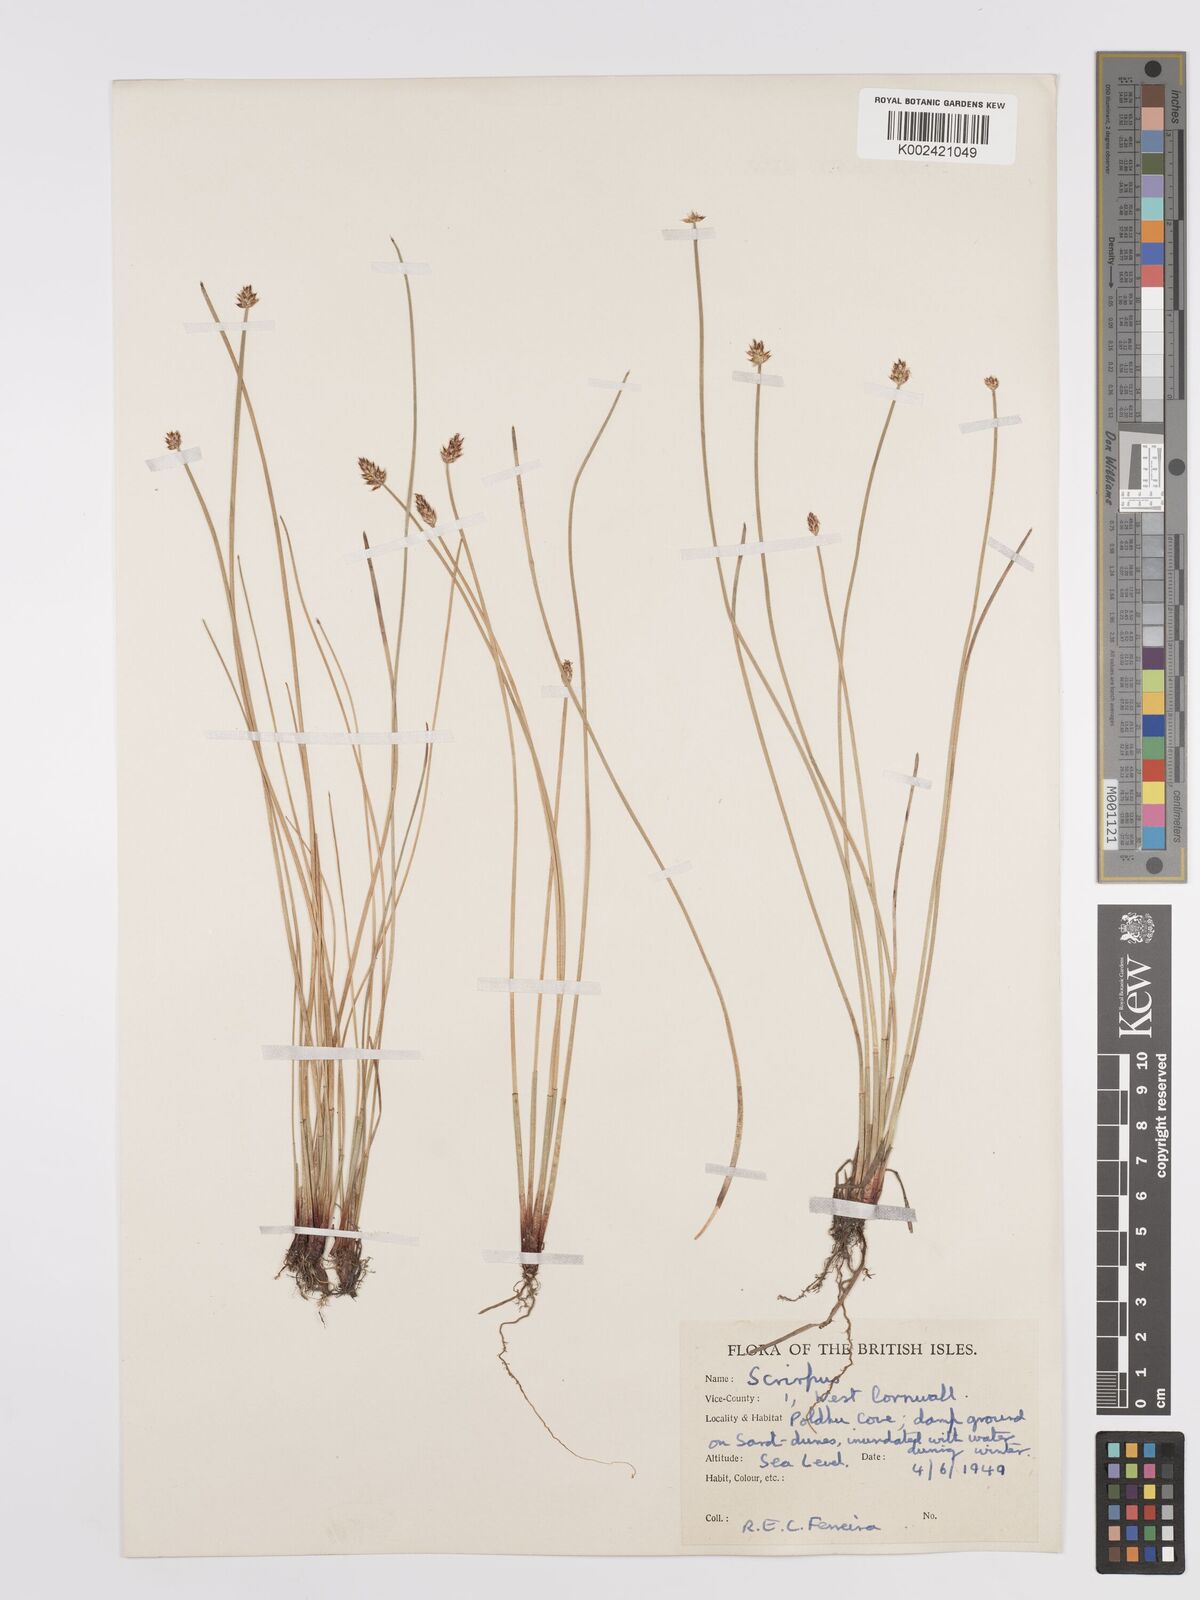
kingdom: Plantae
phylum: Tracheophyta
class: Liliopsida
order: Poales
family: Cyperaceae
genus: Eleocharis
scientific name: Eleocharis palustris
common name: Common spike-rush
